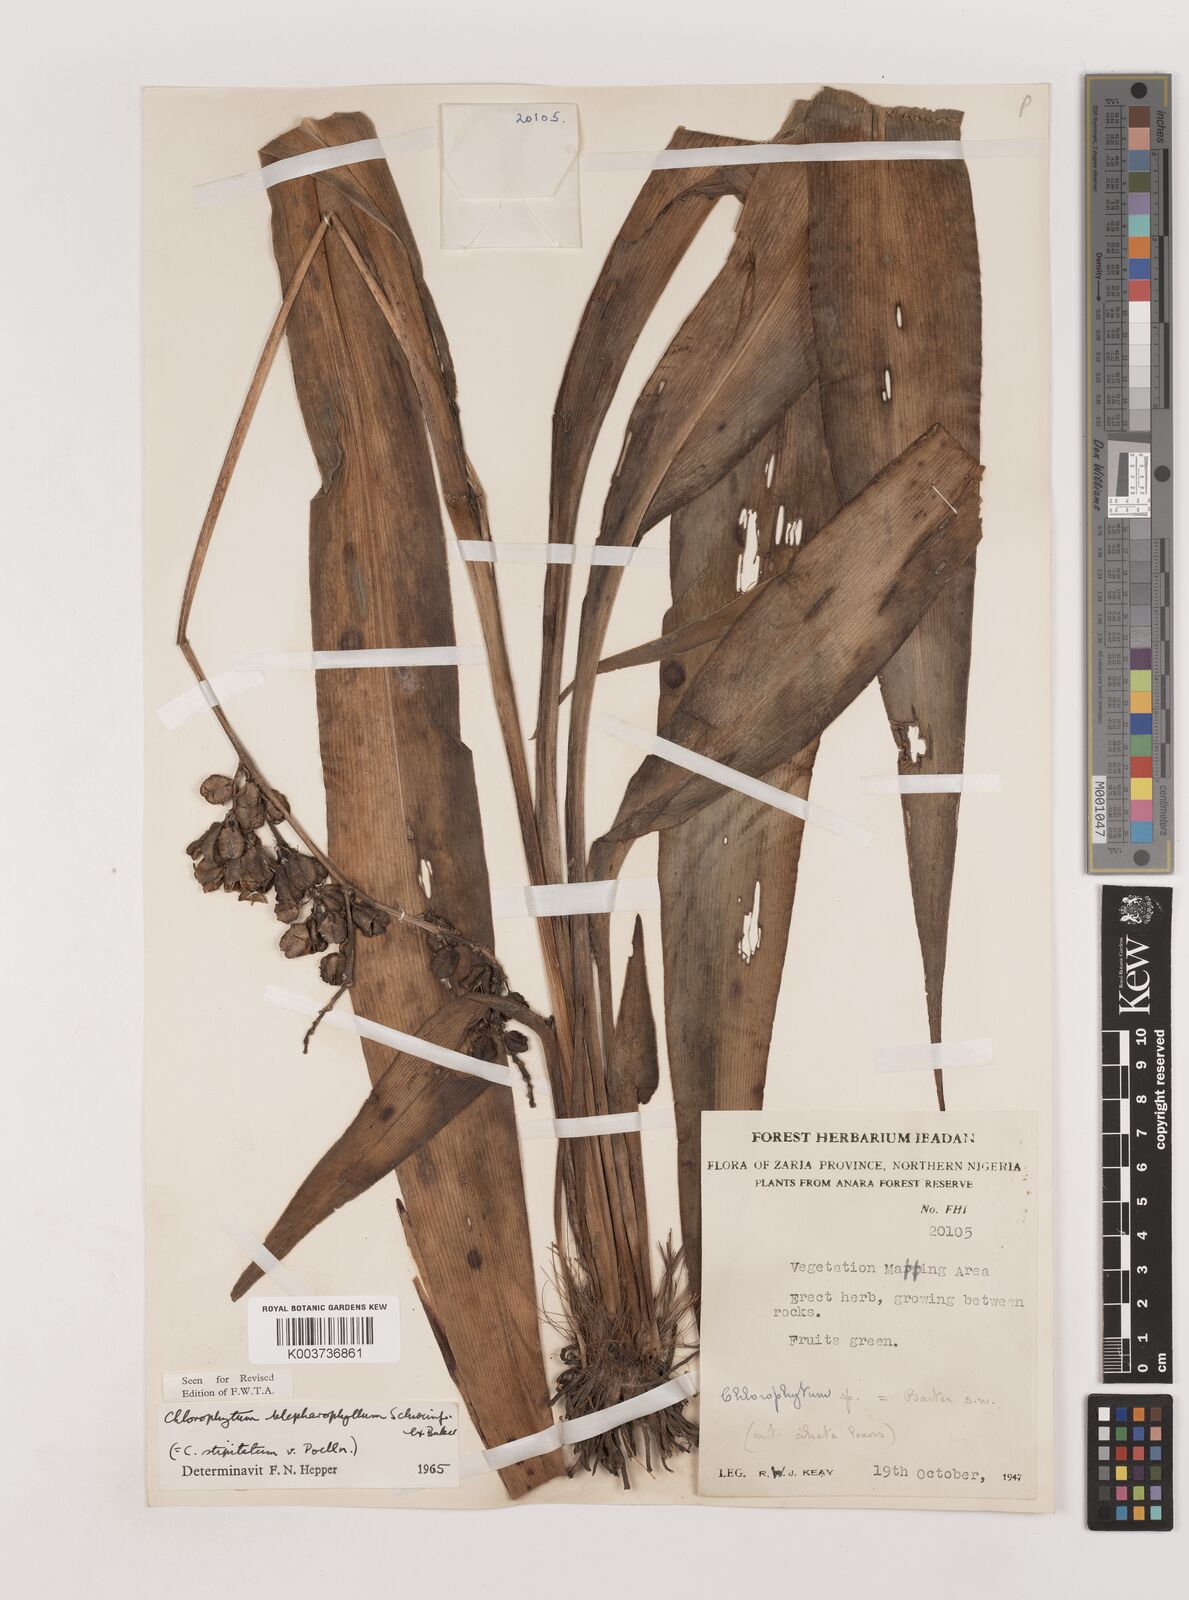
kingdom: Plantae
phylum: Tracheophyta
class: Liliopsida
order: Asparagales
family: Asparagaceae
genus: Chlorophytum
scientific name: Chlorophytum blepharophyllum
